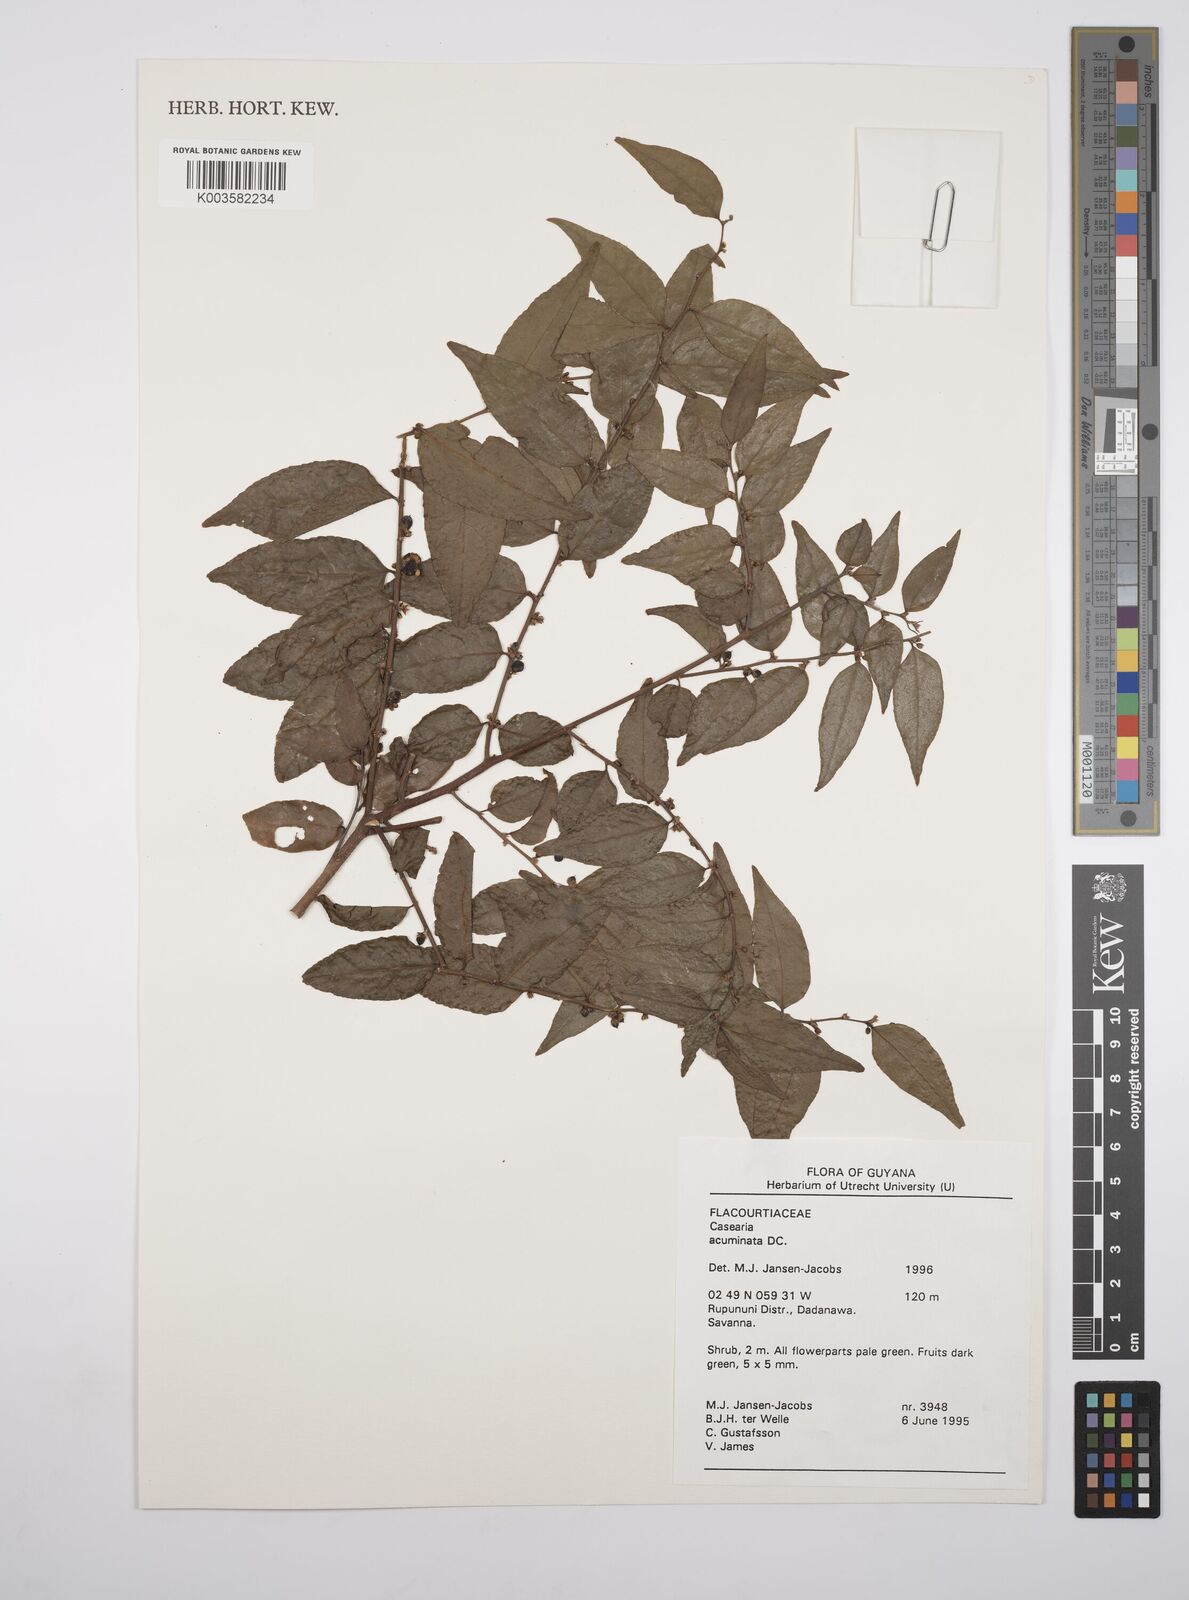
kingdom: Plantae
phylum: Tracheophyta
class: Magnoliopsida
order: Malpighiales
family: Salicaceae
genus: Casearia
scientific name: Casearia acuminata
